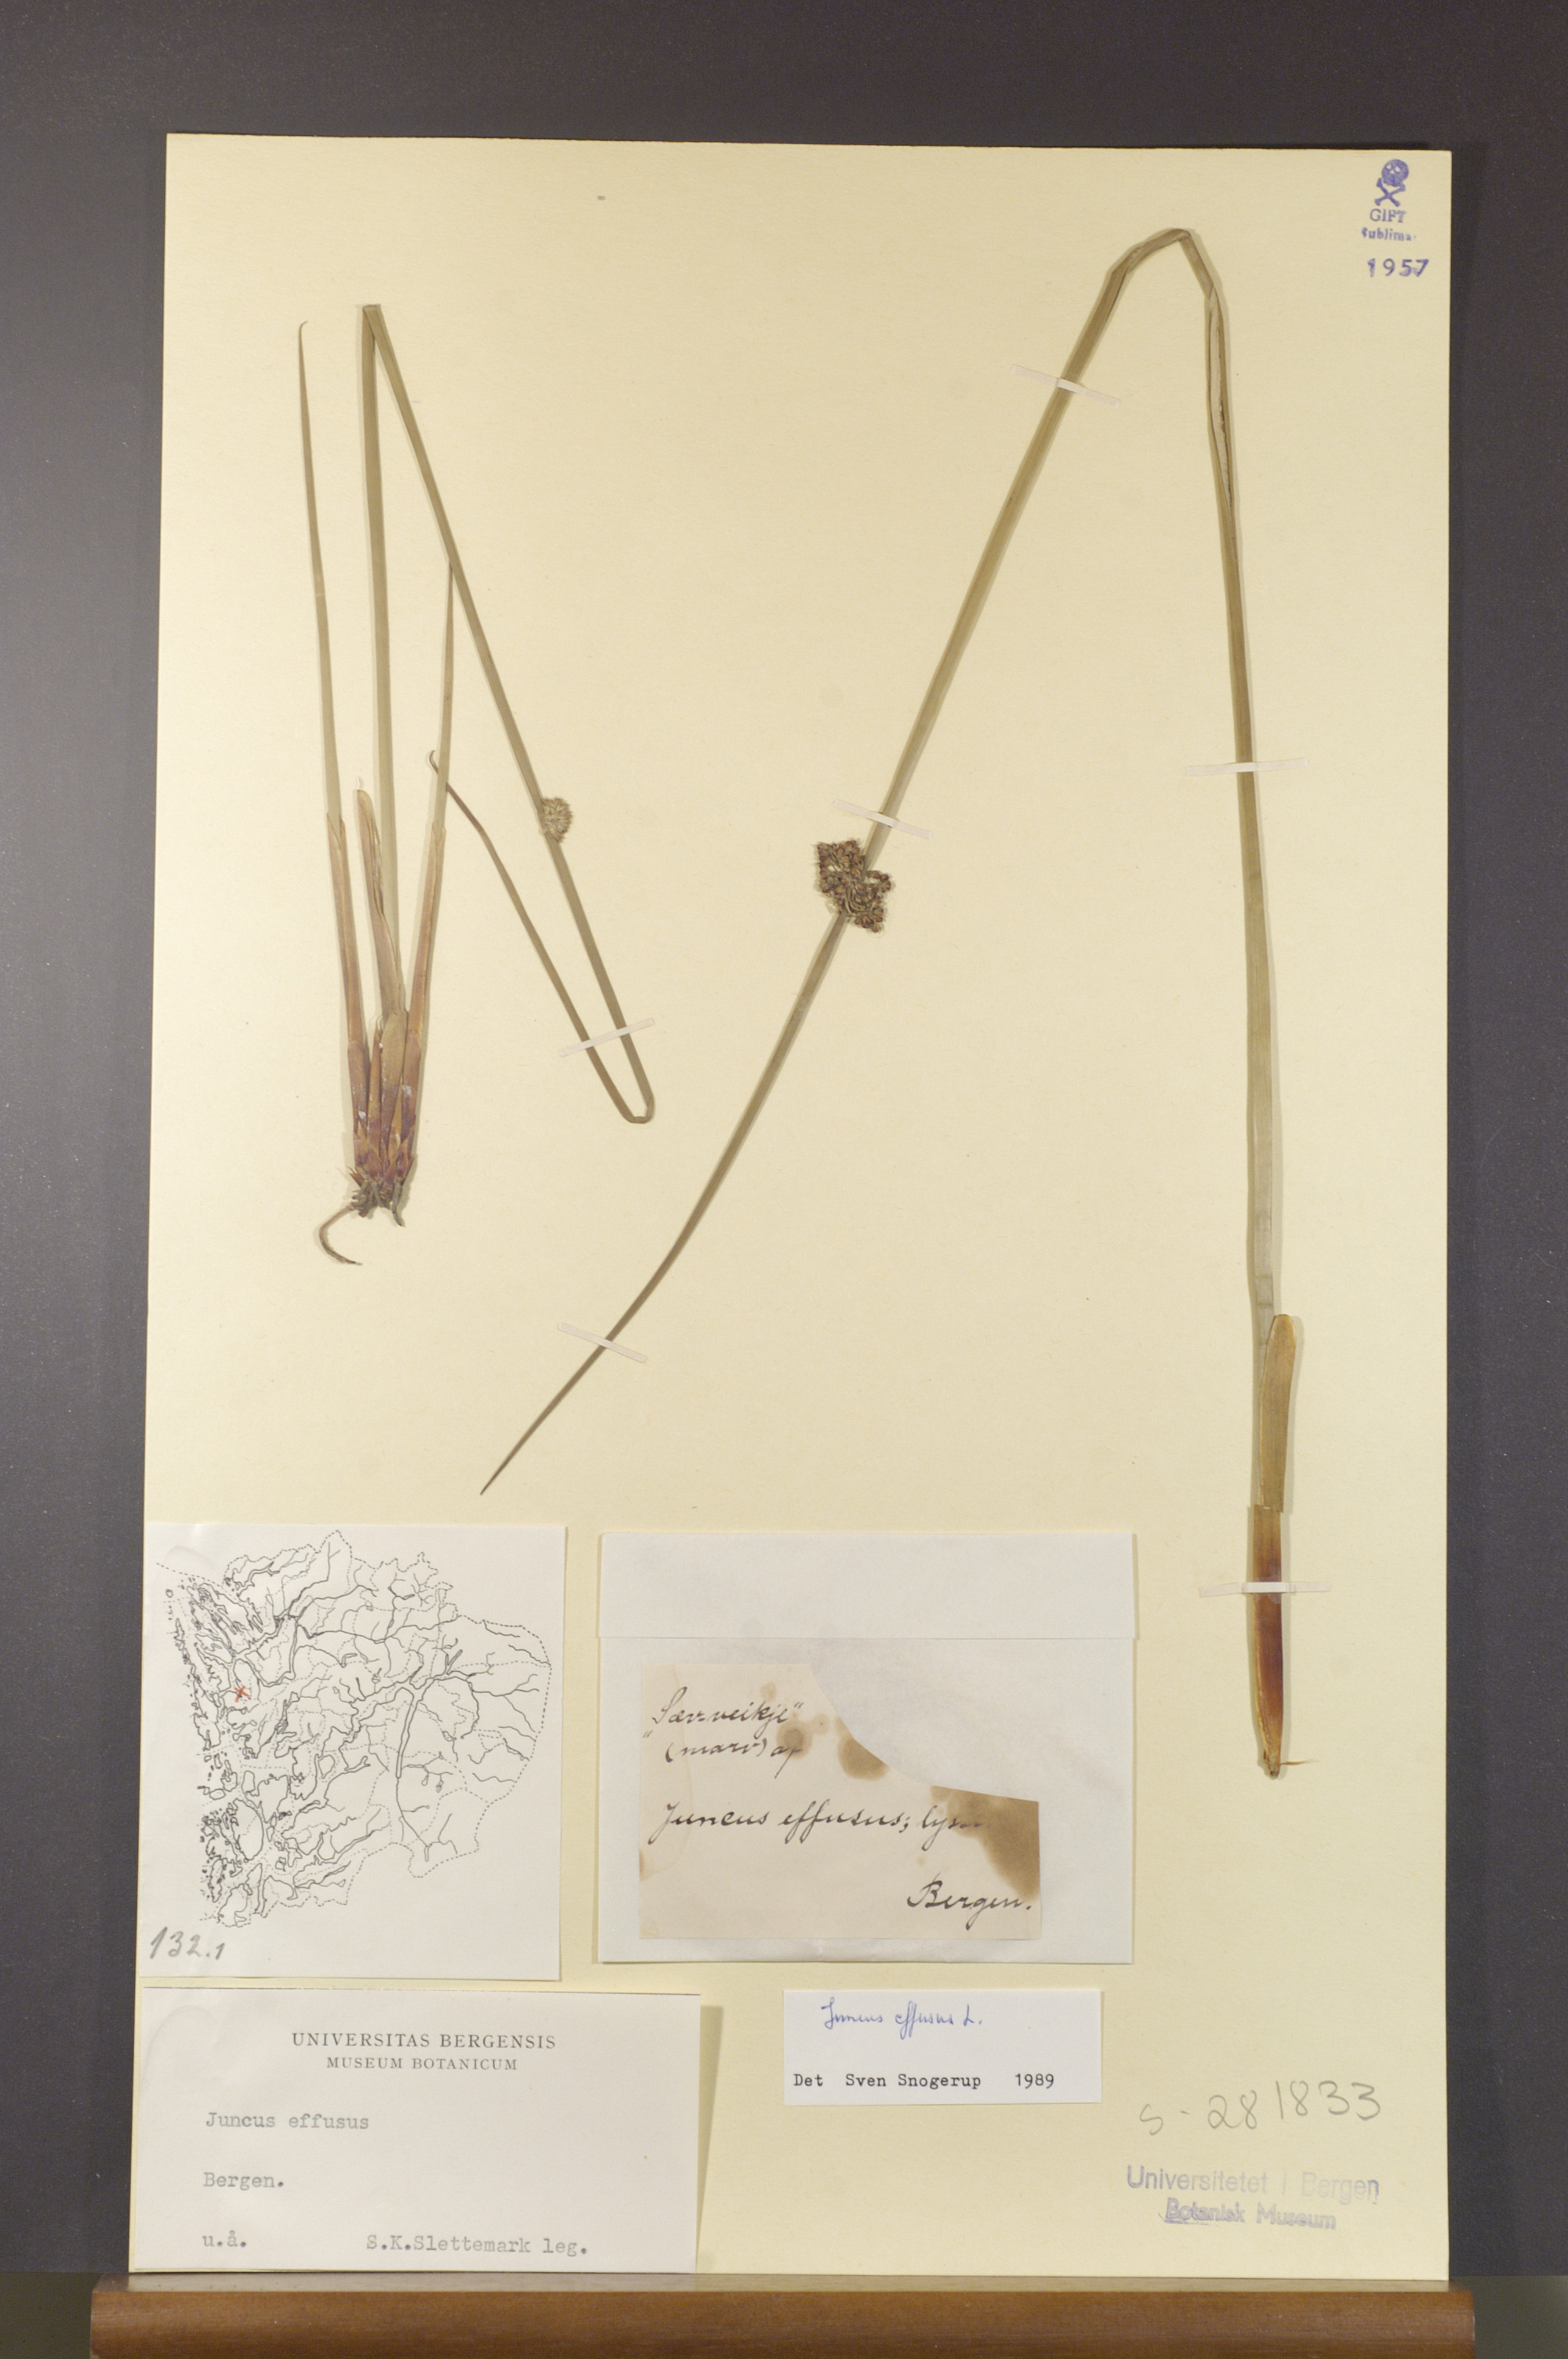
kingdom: Plantae
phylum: Tracheophyta
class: Liliopsida
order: Poales
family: Juncaceae
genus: Juncus
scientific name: Juncus effusus
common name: Soft rush
